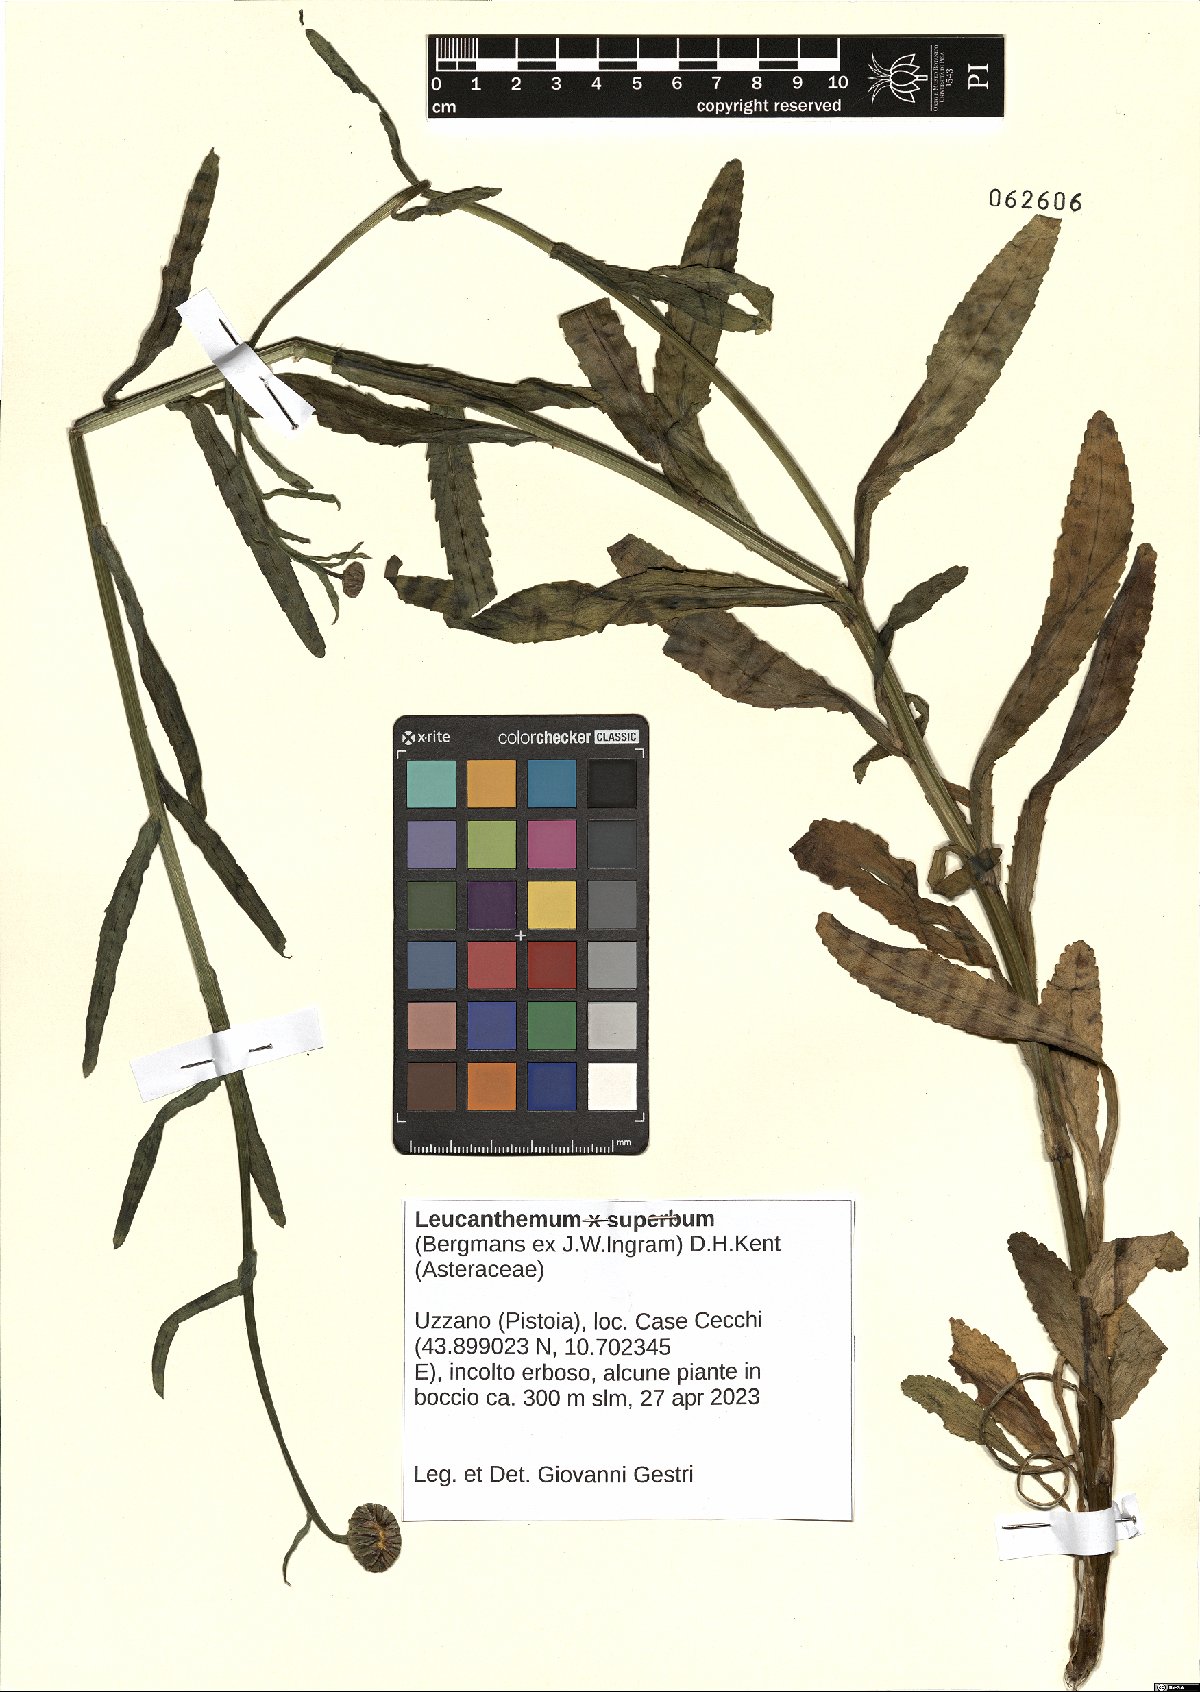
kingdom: Plantae
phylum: Tracheophyta
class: Magnoliopsida
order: Asterales
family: Asteraceae
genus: Leucanthemum
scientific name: Leucanthemum superbum
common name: Shasta daisy
